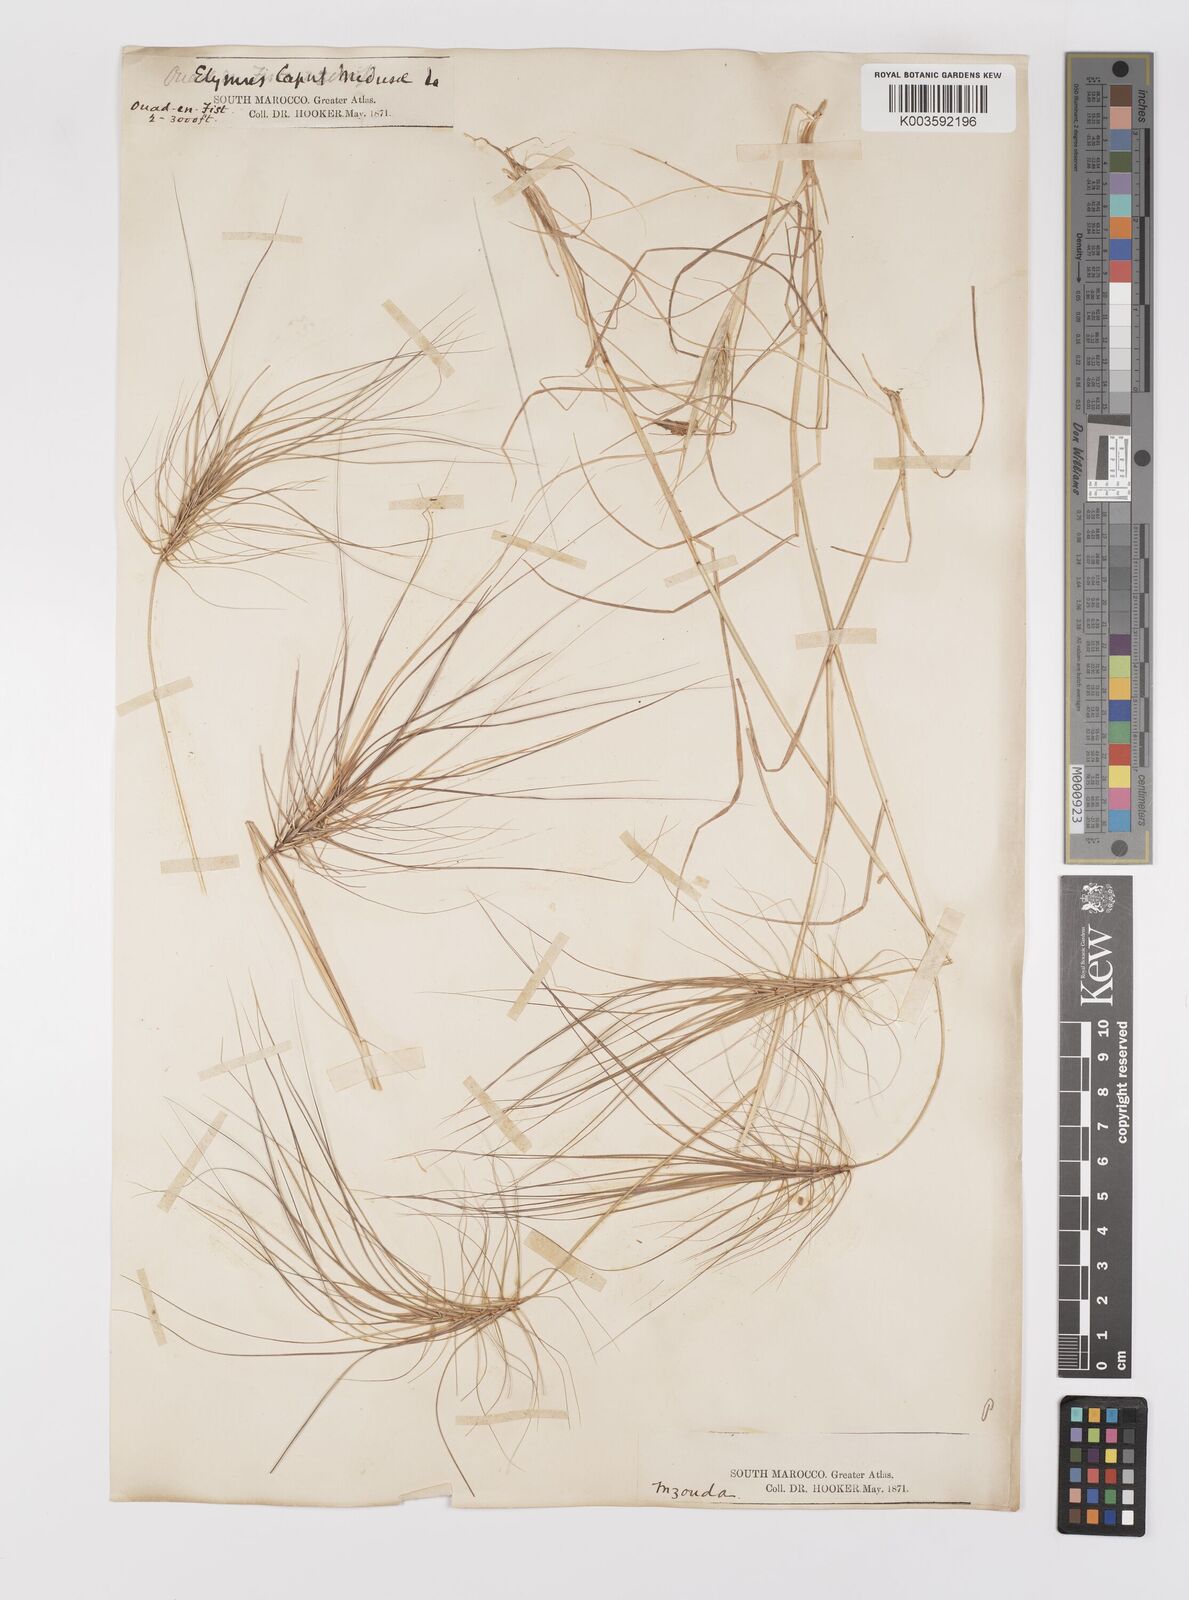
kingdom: Plantae
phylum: Tracheophyta
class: Liliopsida
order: Poales
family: Poaceae
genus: Taeniatherum
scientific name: Taeniatherum caput-medusae
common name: Medusahead
